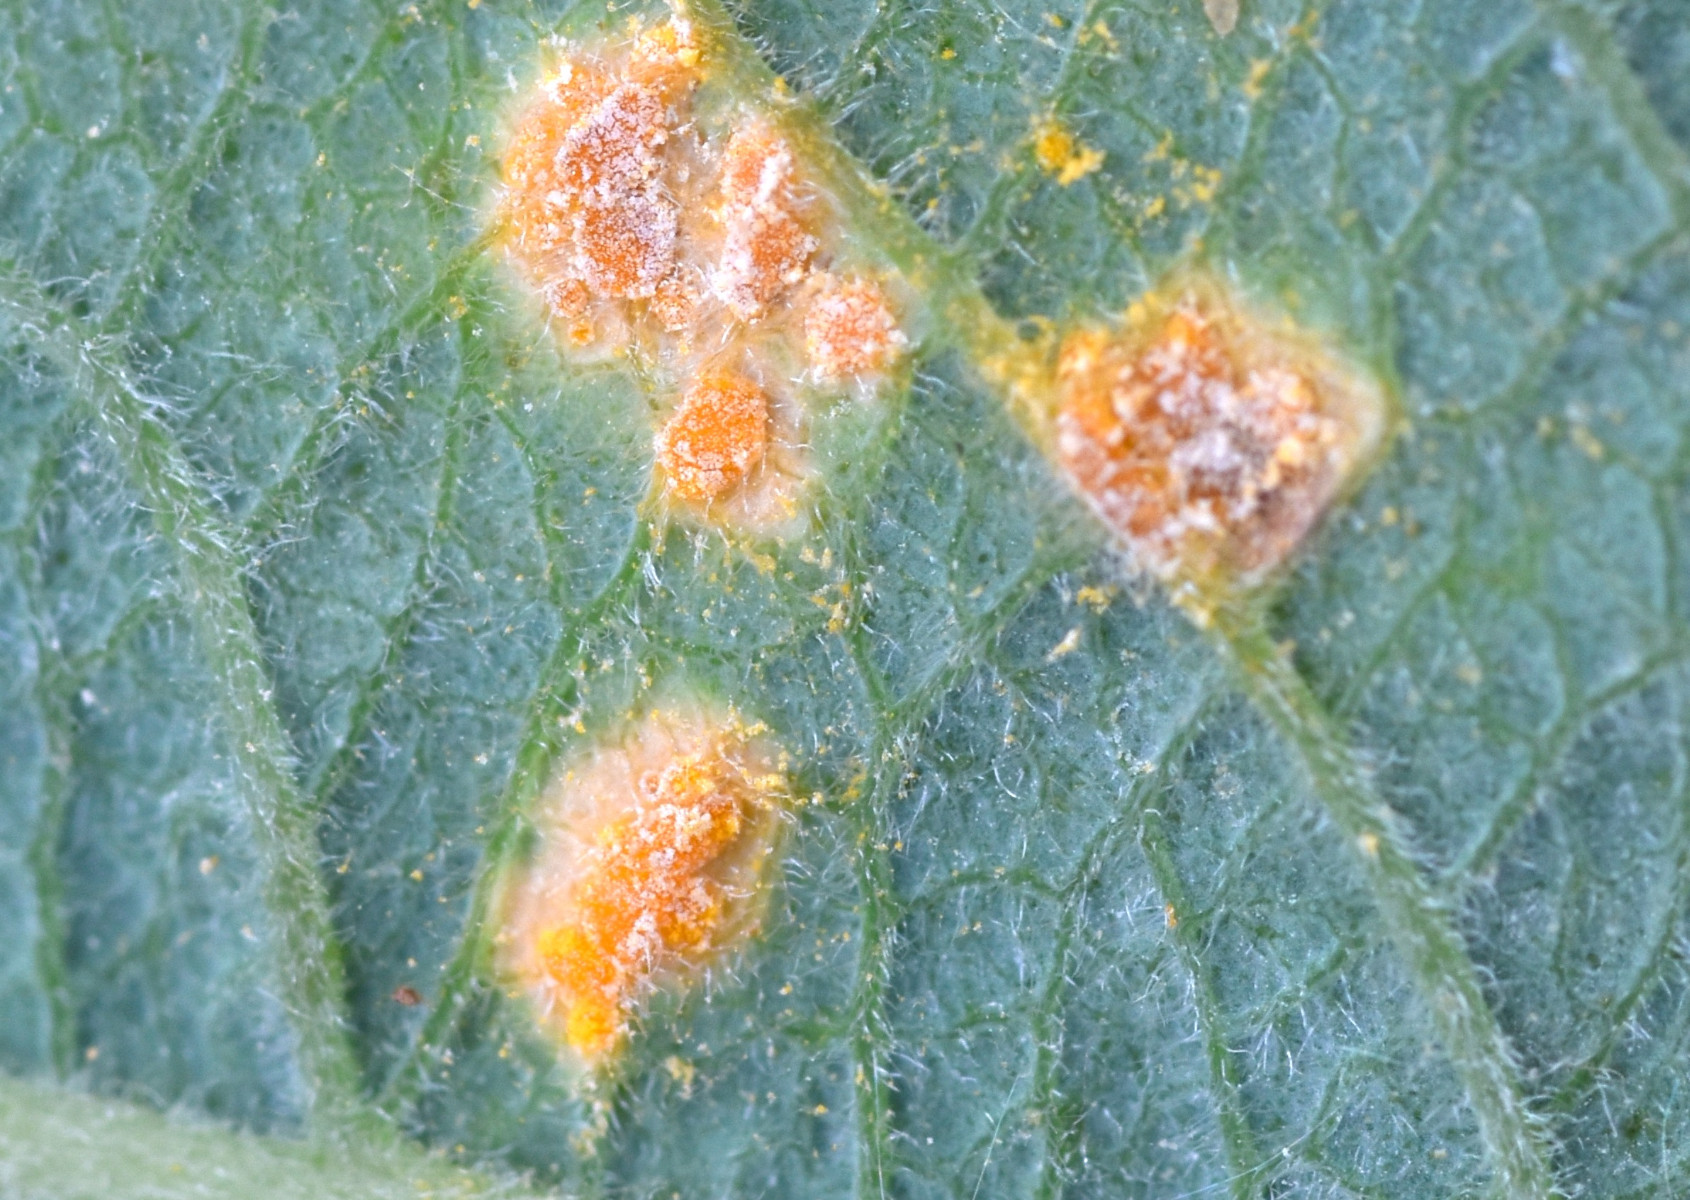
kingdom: Fungi
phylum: Basidiomycota
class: Pucciniomycetes
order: Pucciniales
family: Melampsoraceae
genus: Melampsora
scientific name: Melampsora epitea
